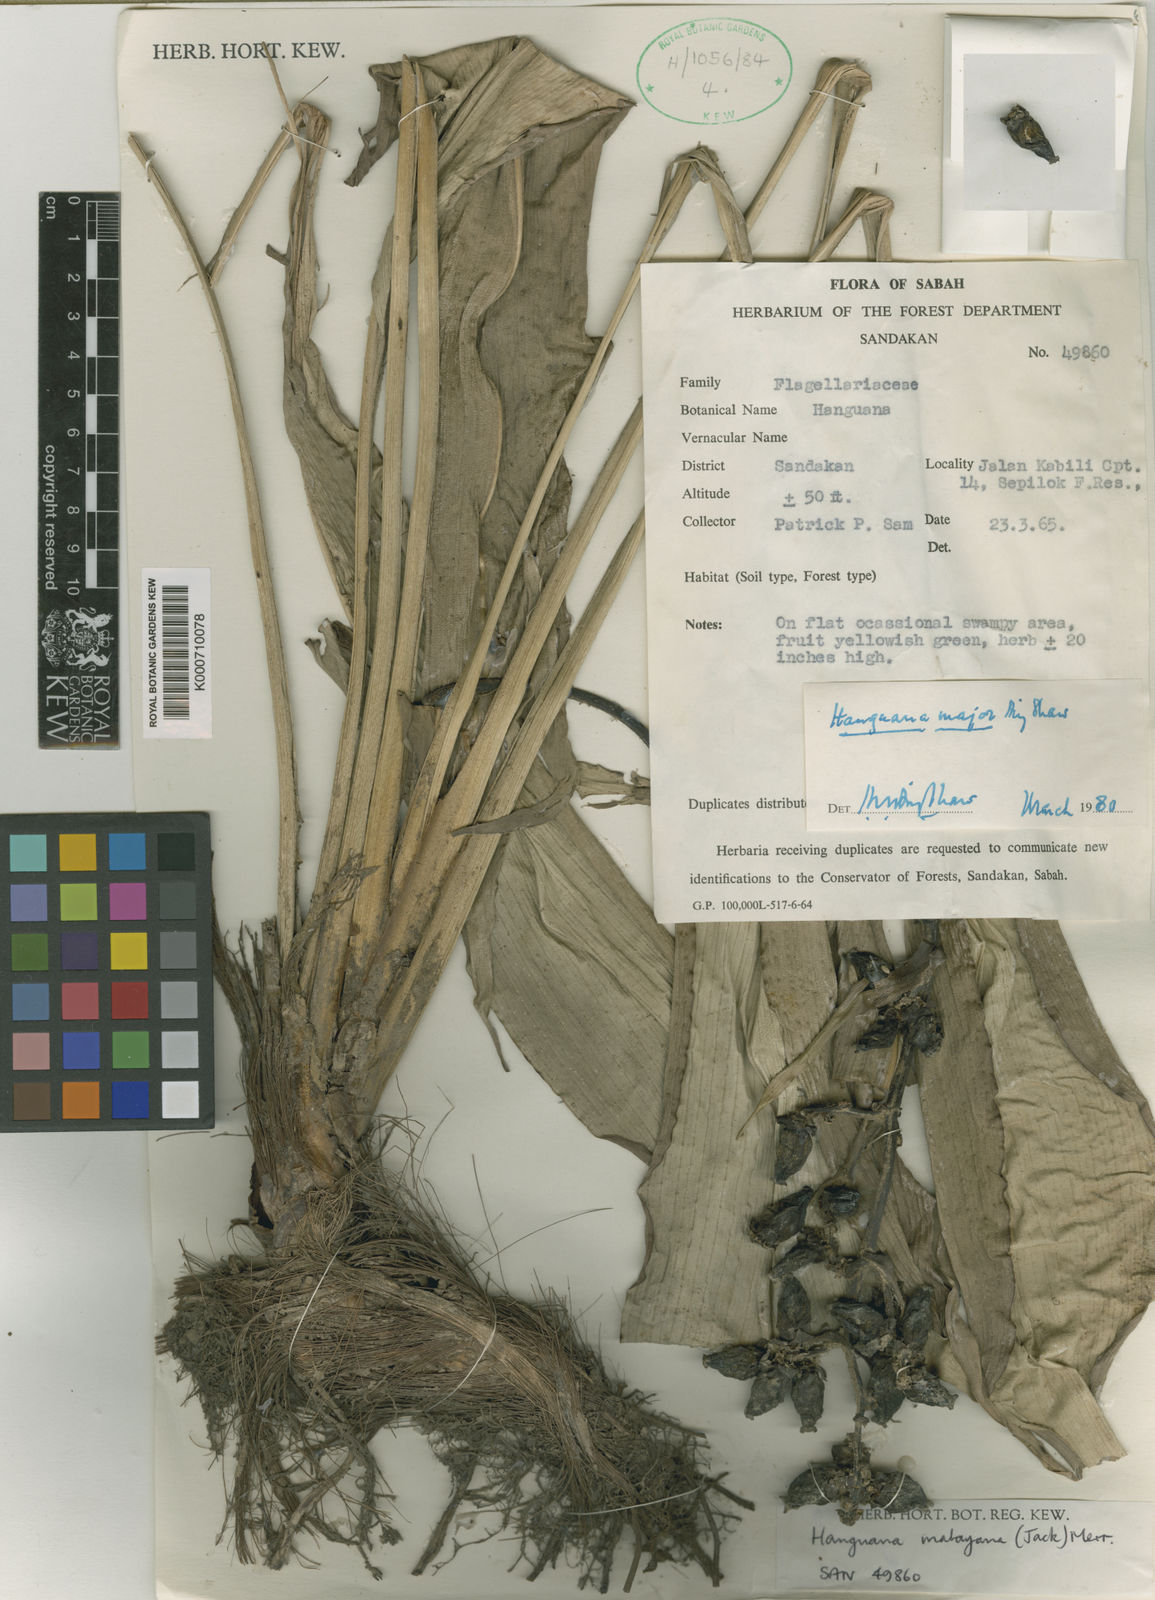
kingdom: Plantae
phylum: Tracheophyta
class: Liliopsida
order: Commelinales
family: Hanguanaceae
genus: Hanguana
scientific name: Hanguana major
